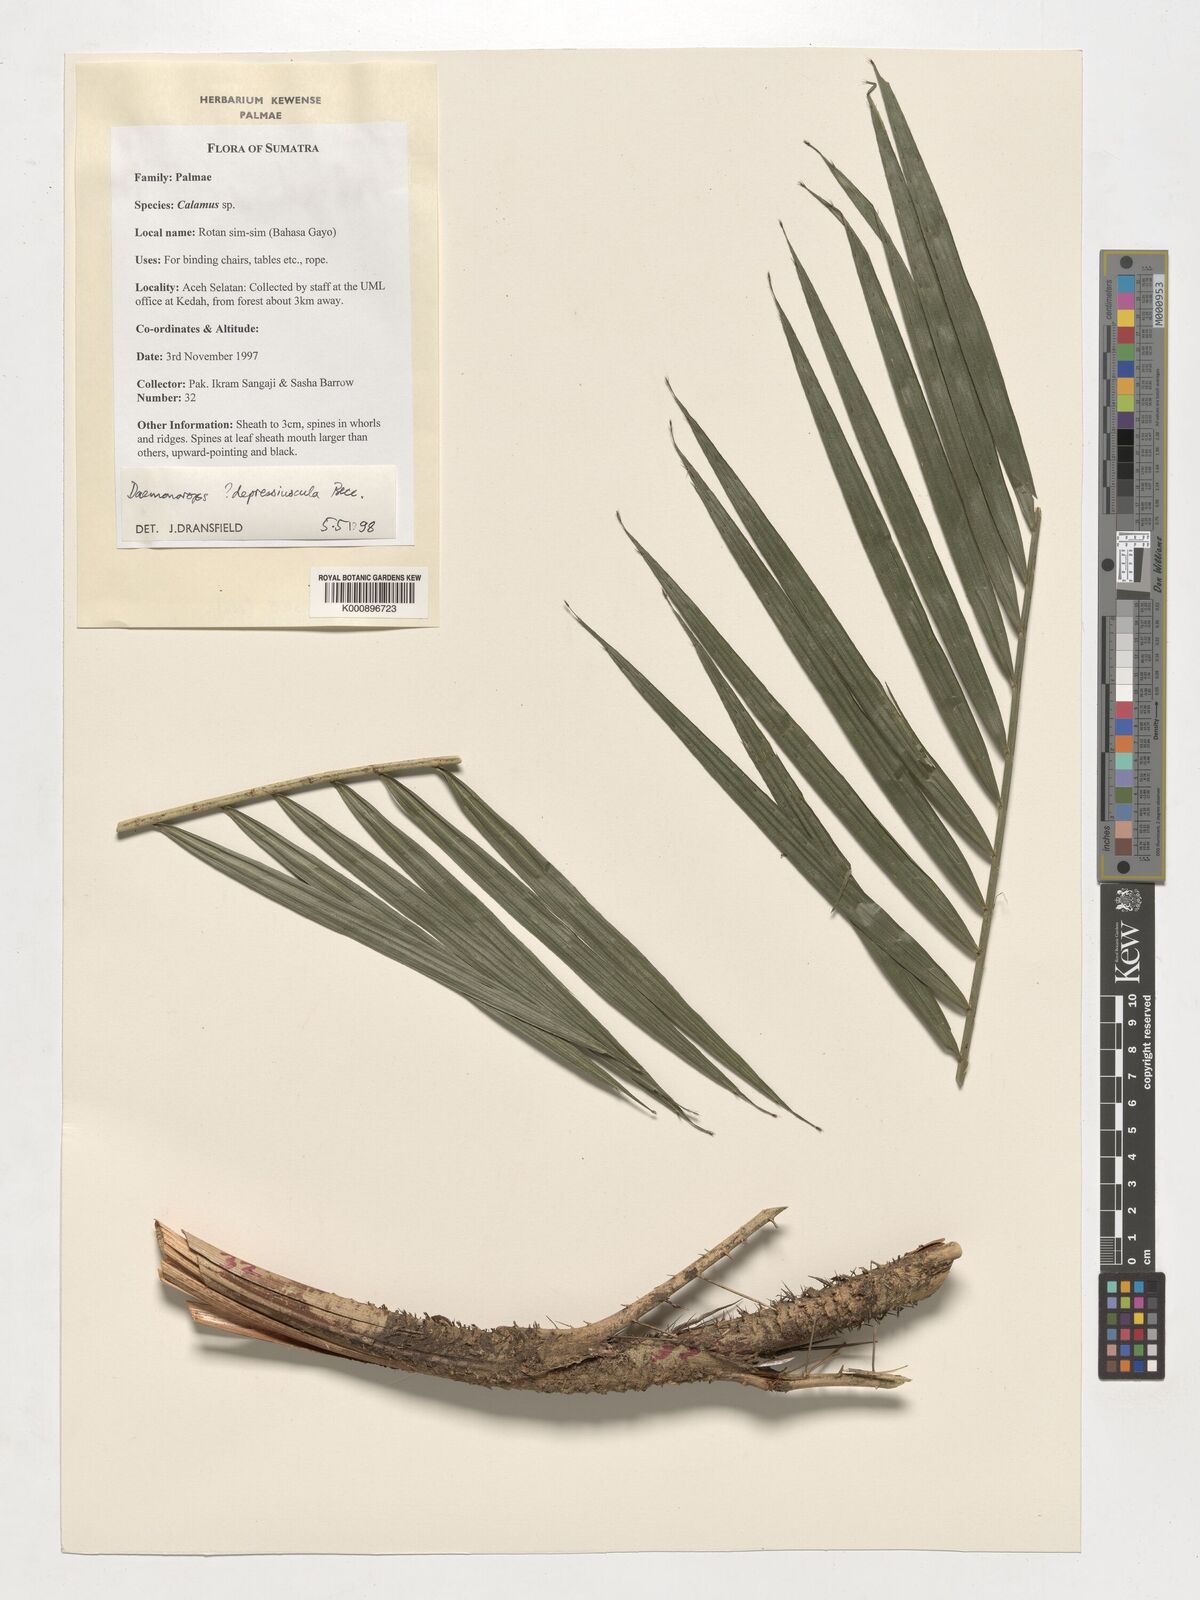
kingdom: Plantae
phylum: Tracheophyta
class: Liliopsida
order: Arecales
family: Arecaceae
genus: Daemonorops
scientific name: Daemonorops
